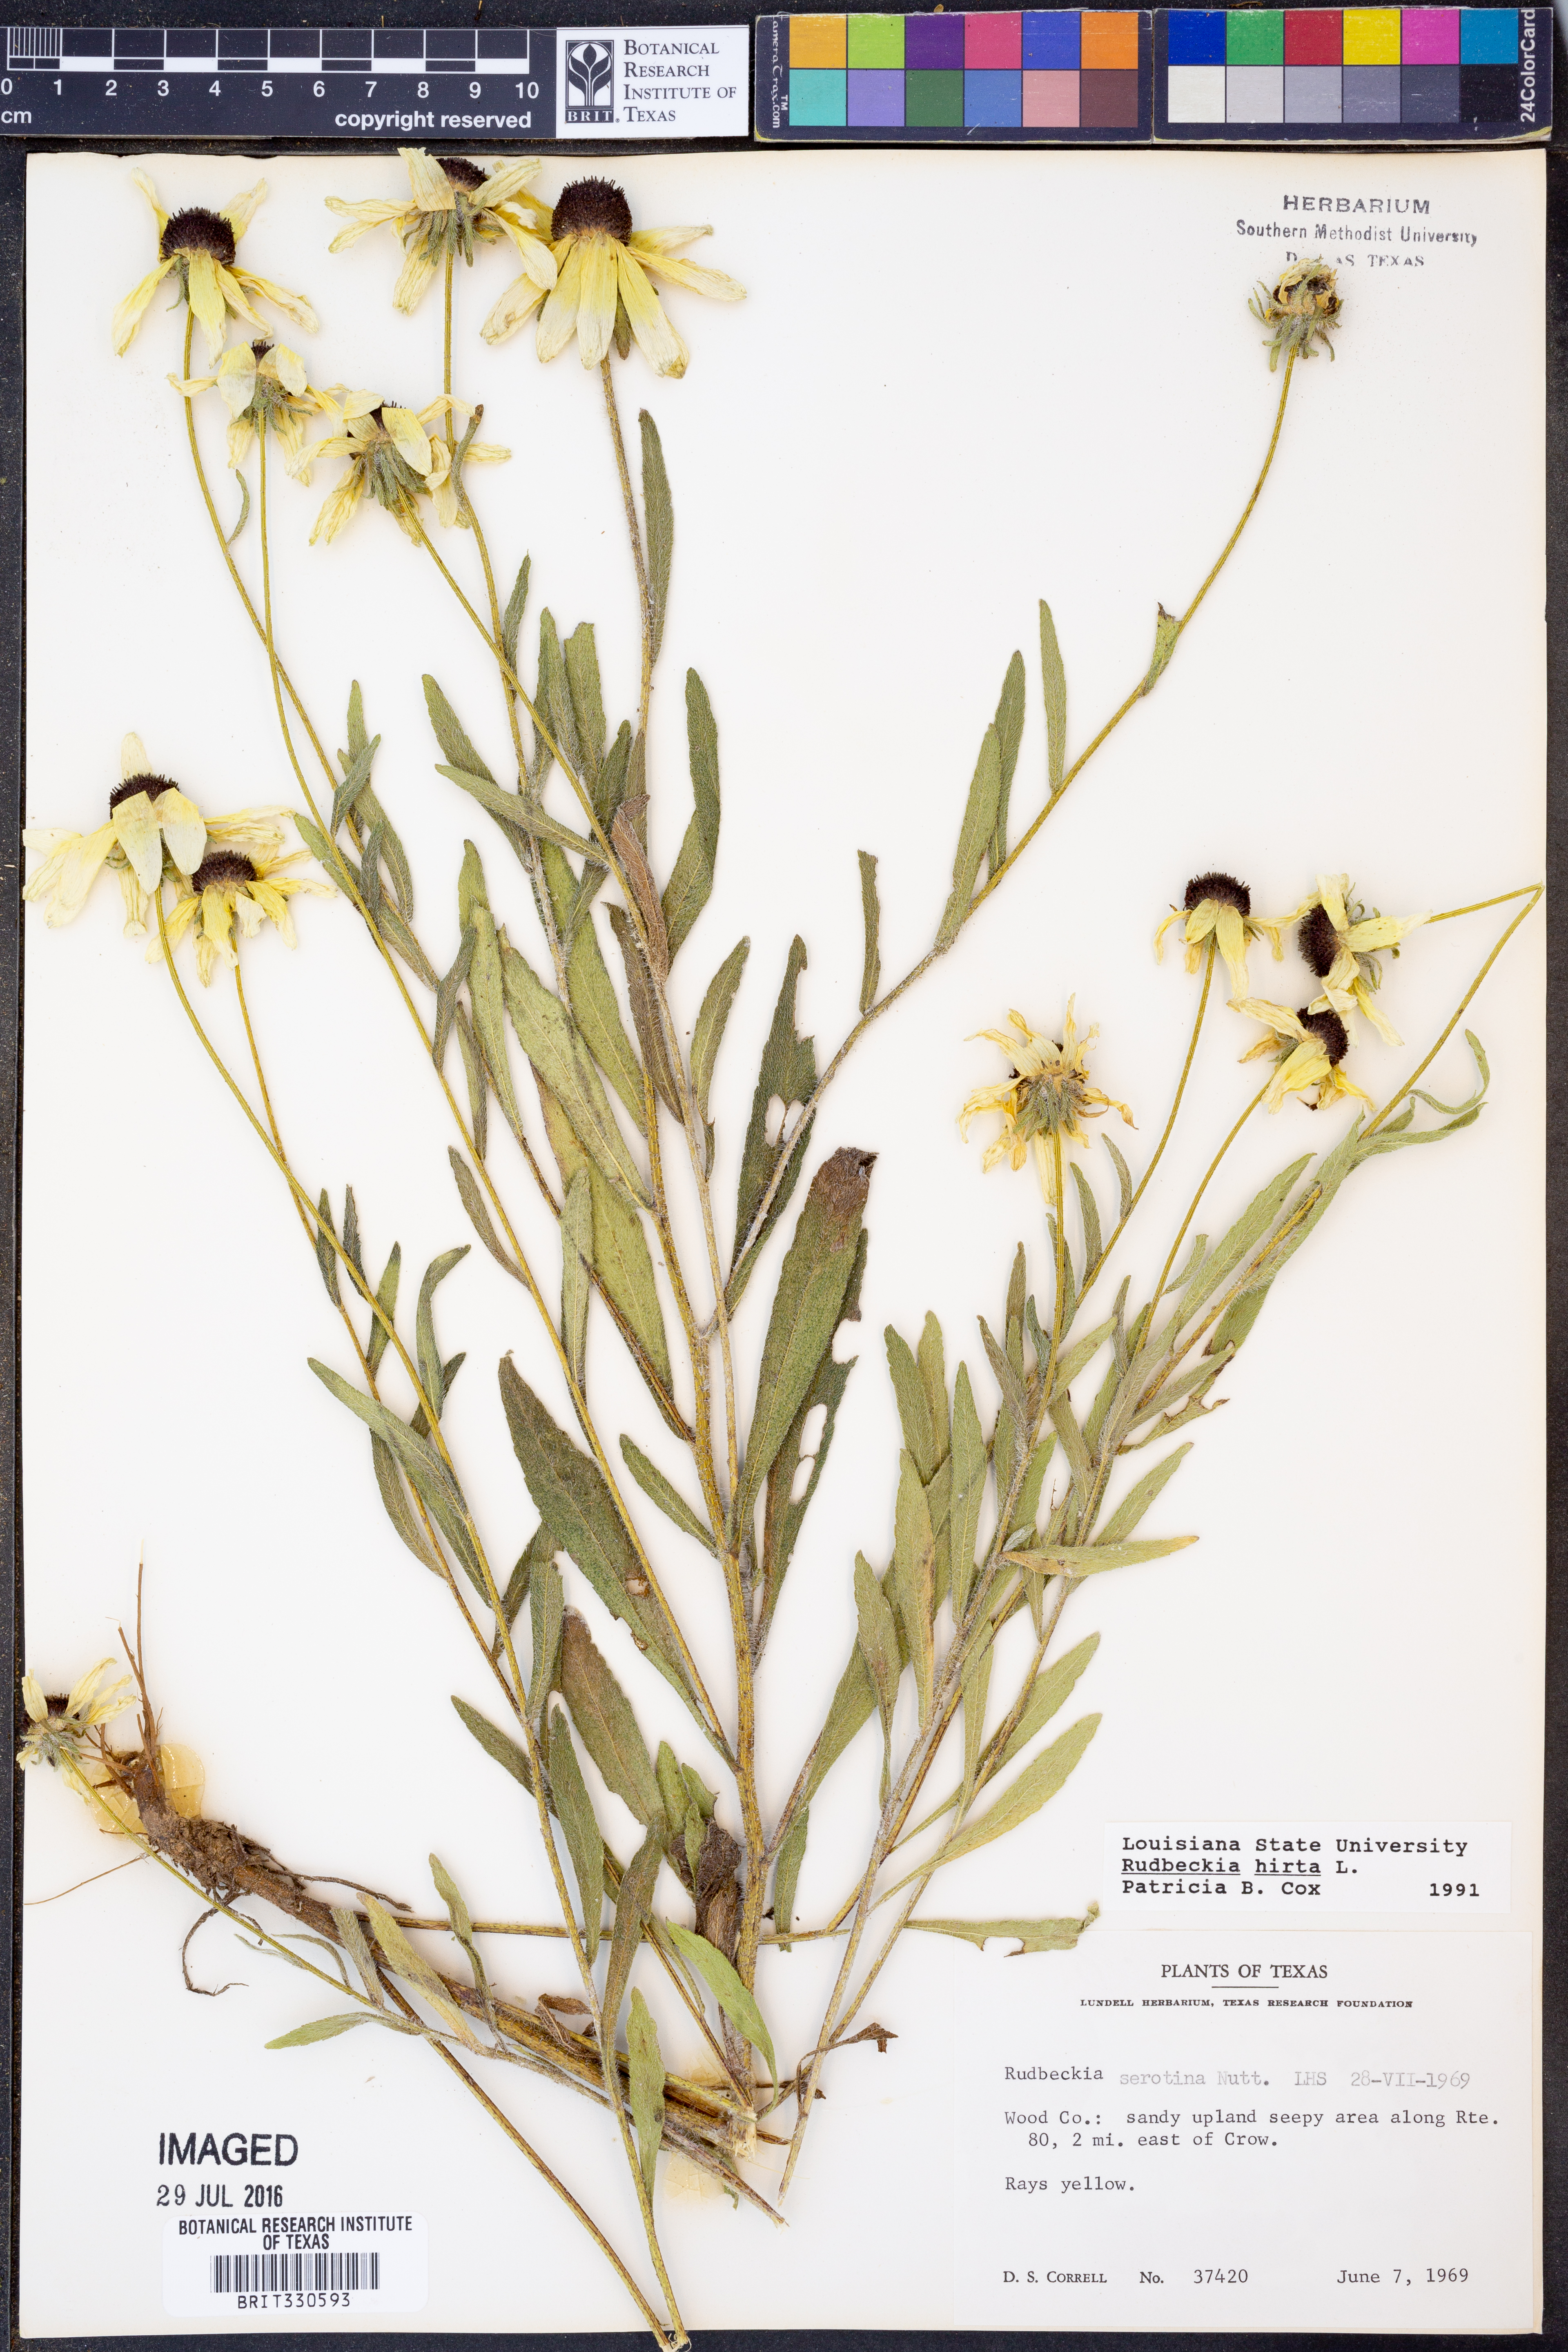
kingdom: Plantae
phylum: Tracheophyta
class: Magnoliopsida
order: Asterales
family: Asteraceae
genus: Rudbeckia
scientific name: Rudbeckia hirta
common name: Black-eyed-susan
